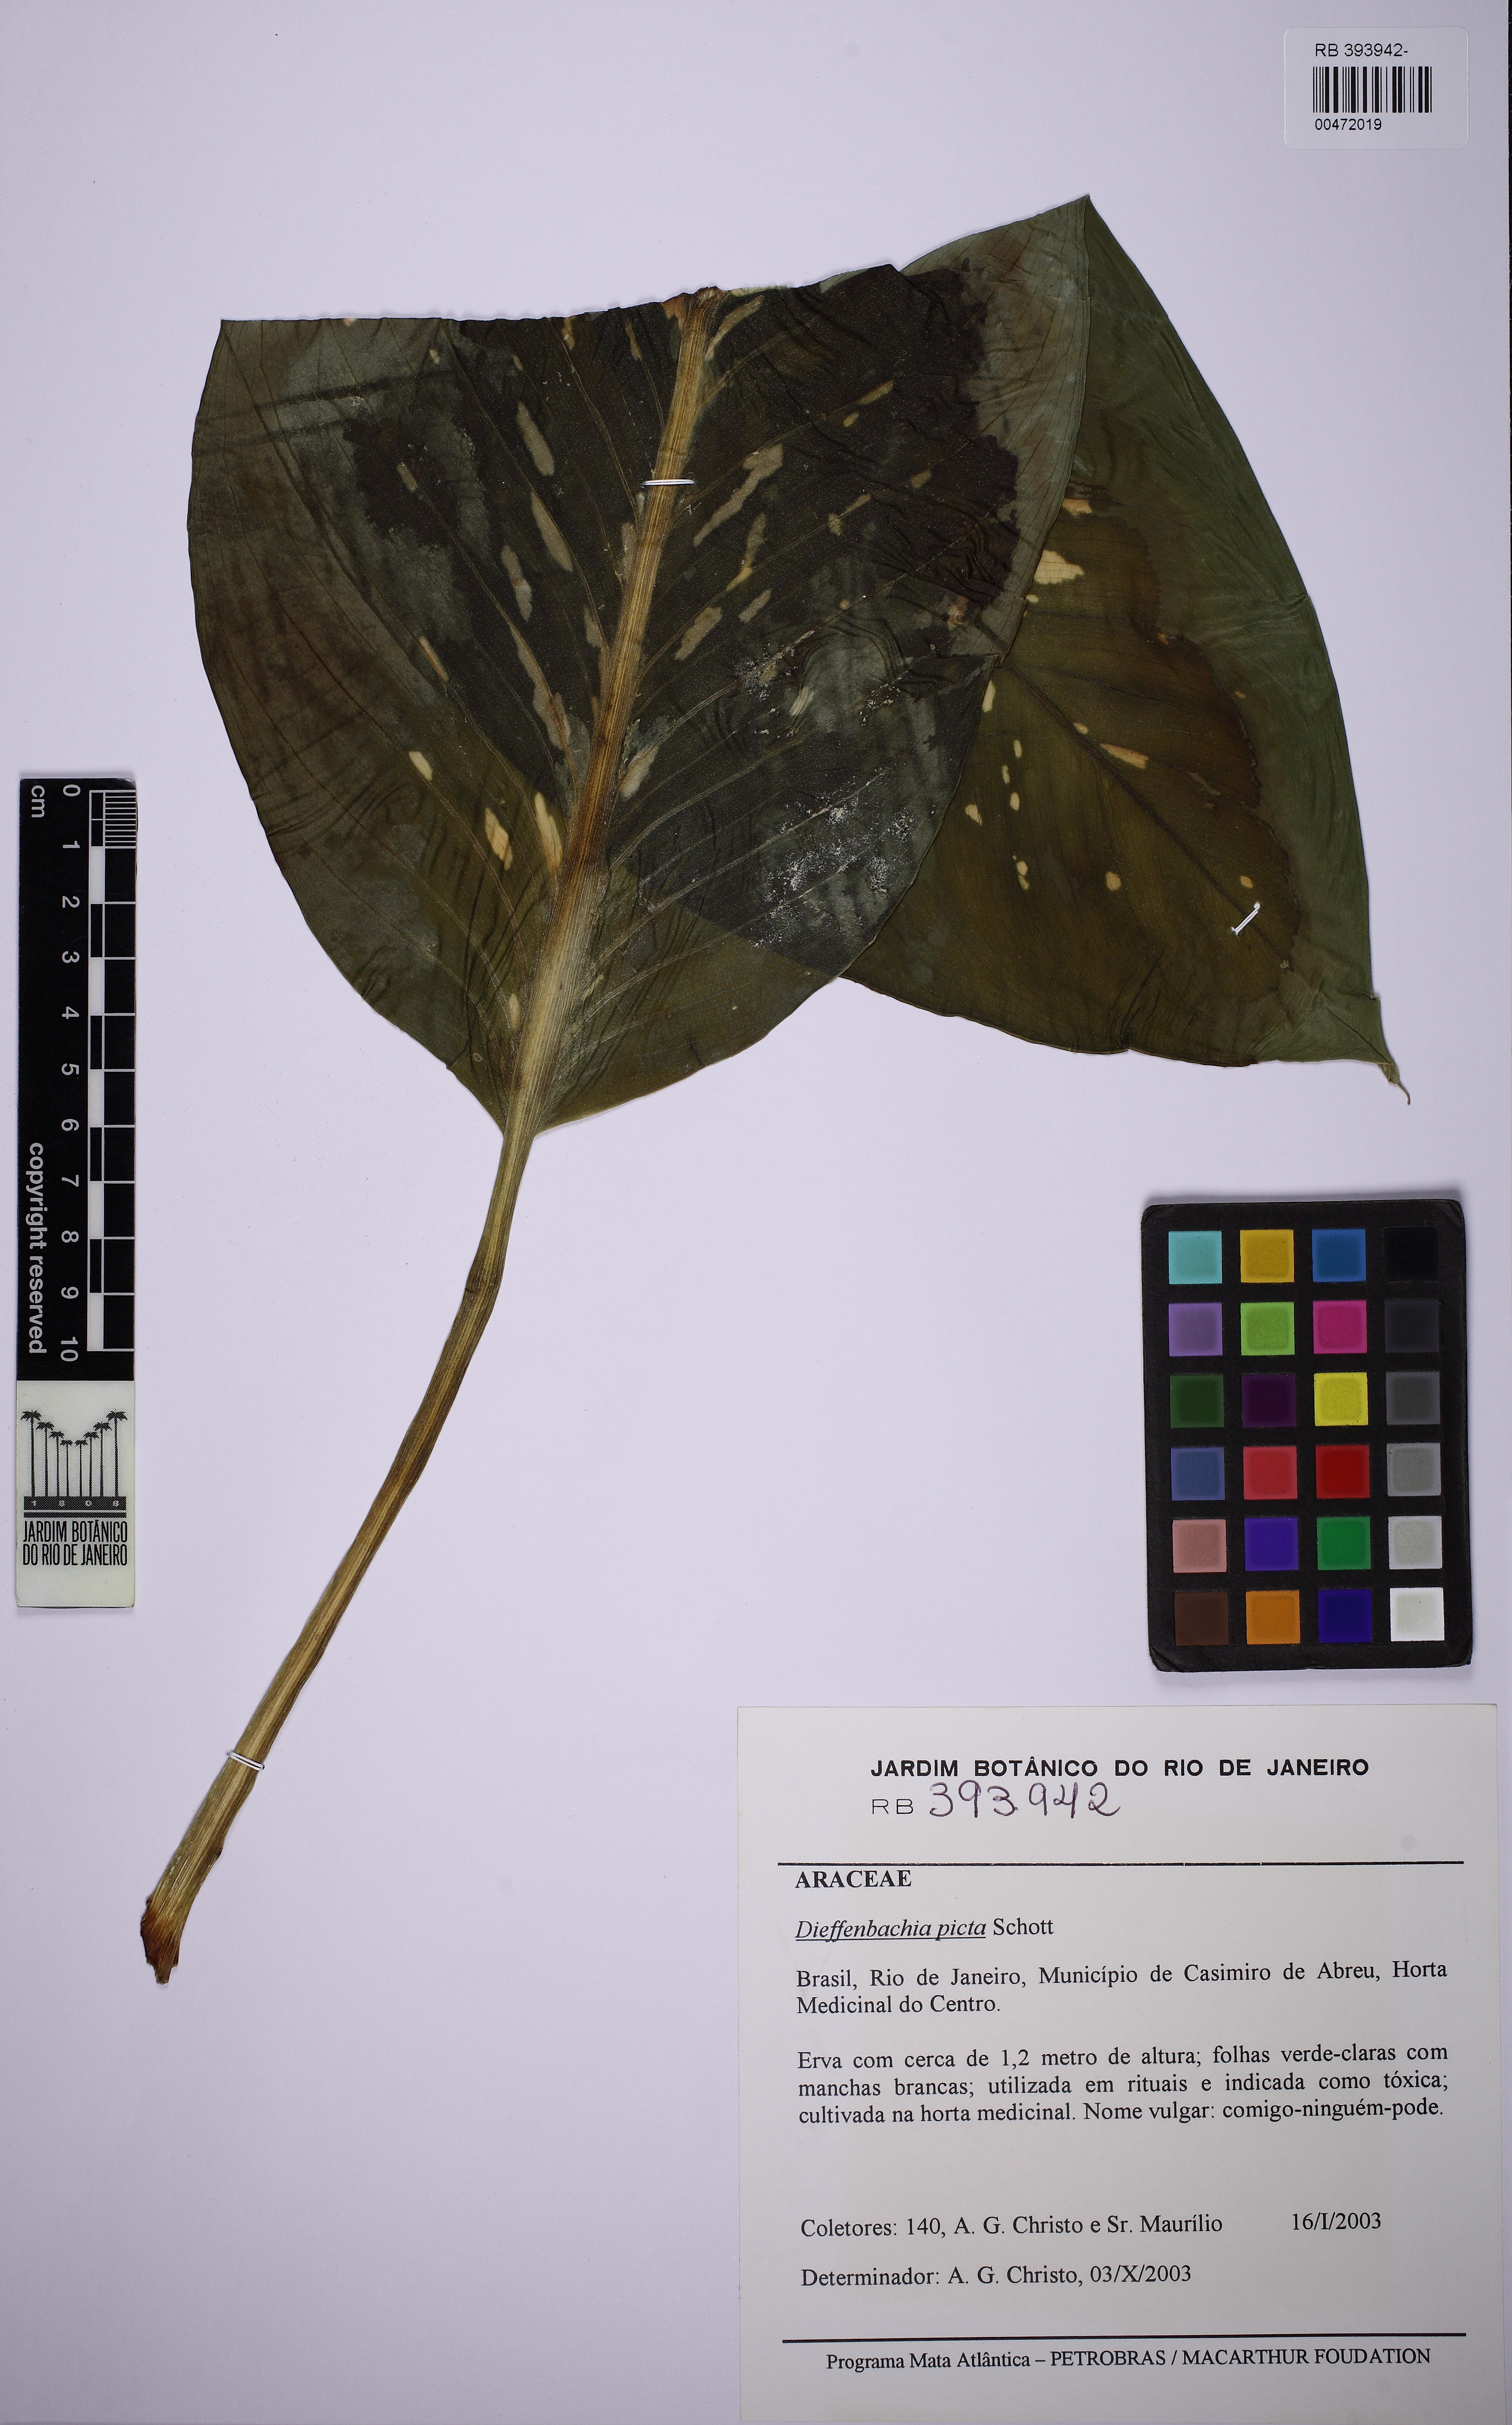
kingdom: Plantae
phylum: Tracheophyta
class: Liliopsida
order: Alismatales
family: Araceae
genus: Dieffenbachia
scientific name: Dieffenbachia seguine
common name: Dumbcane
